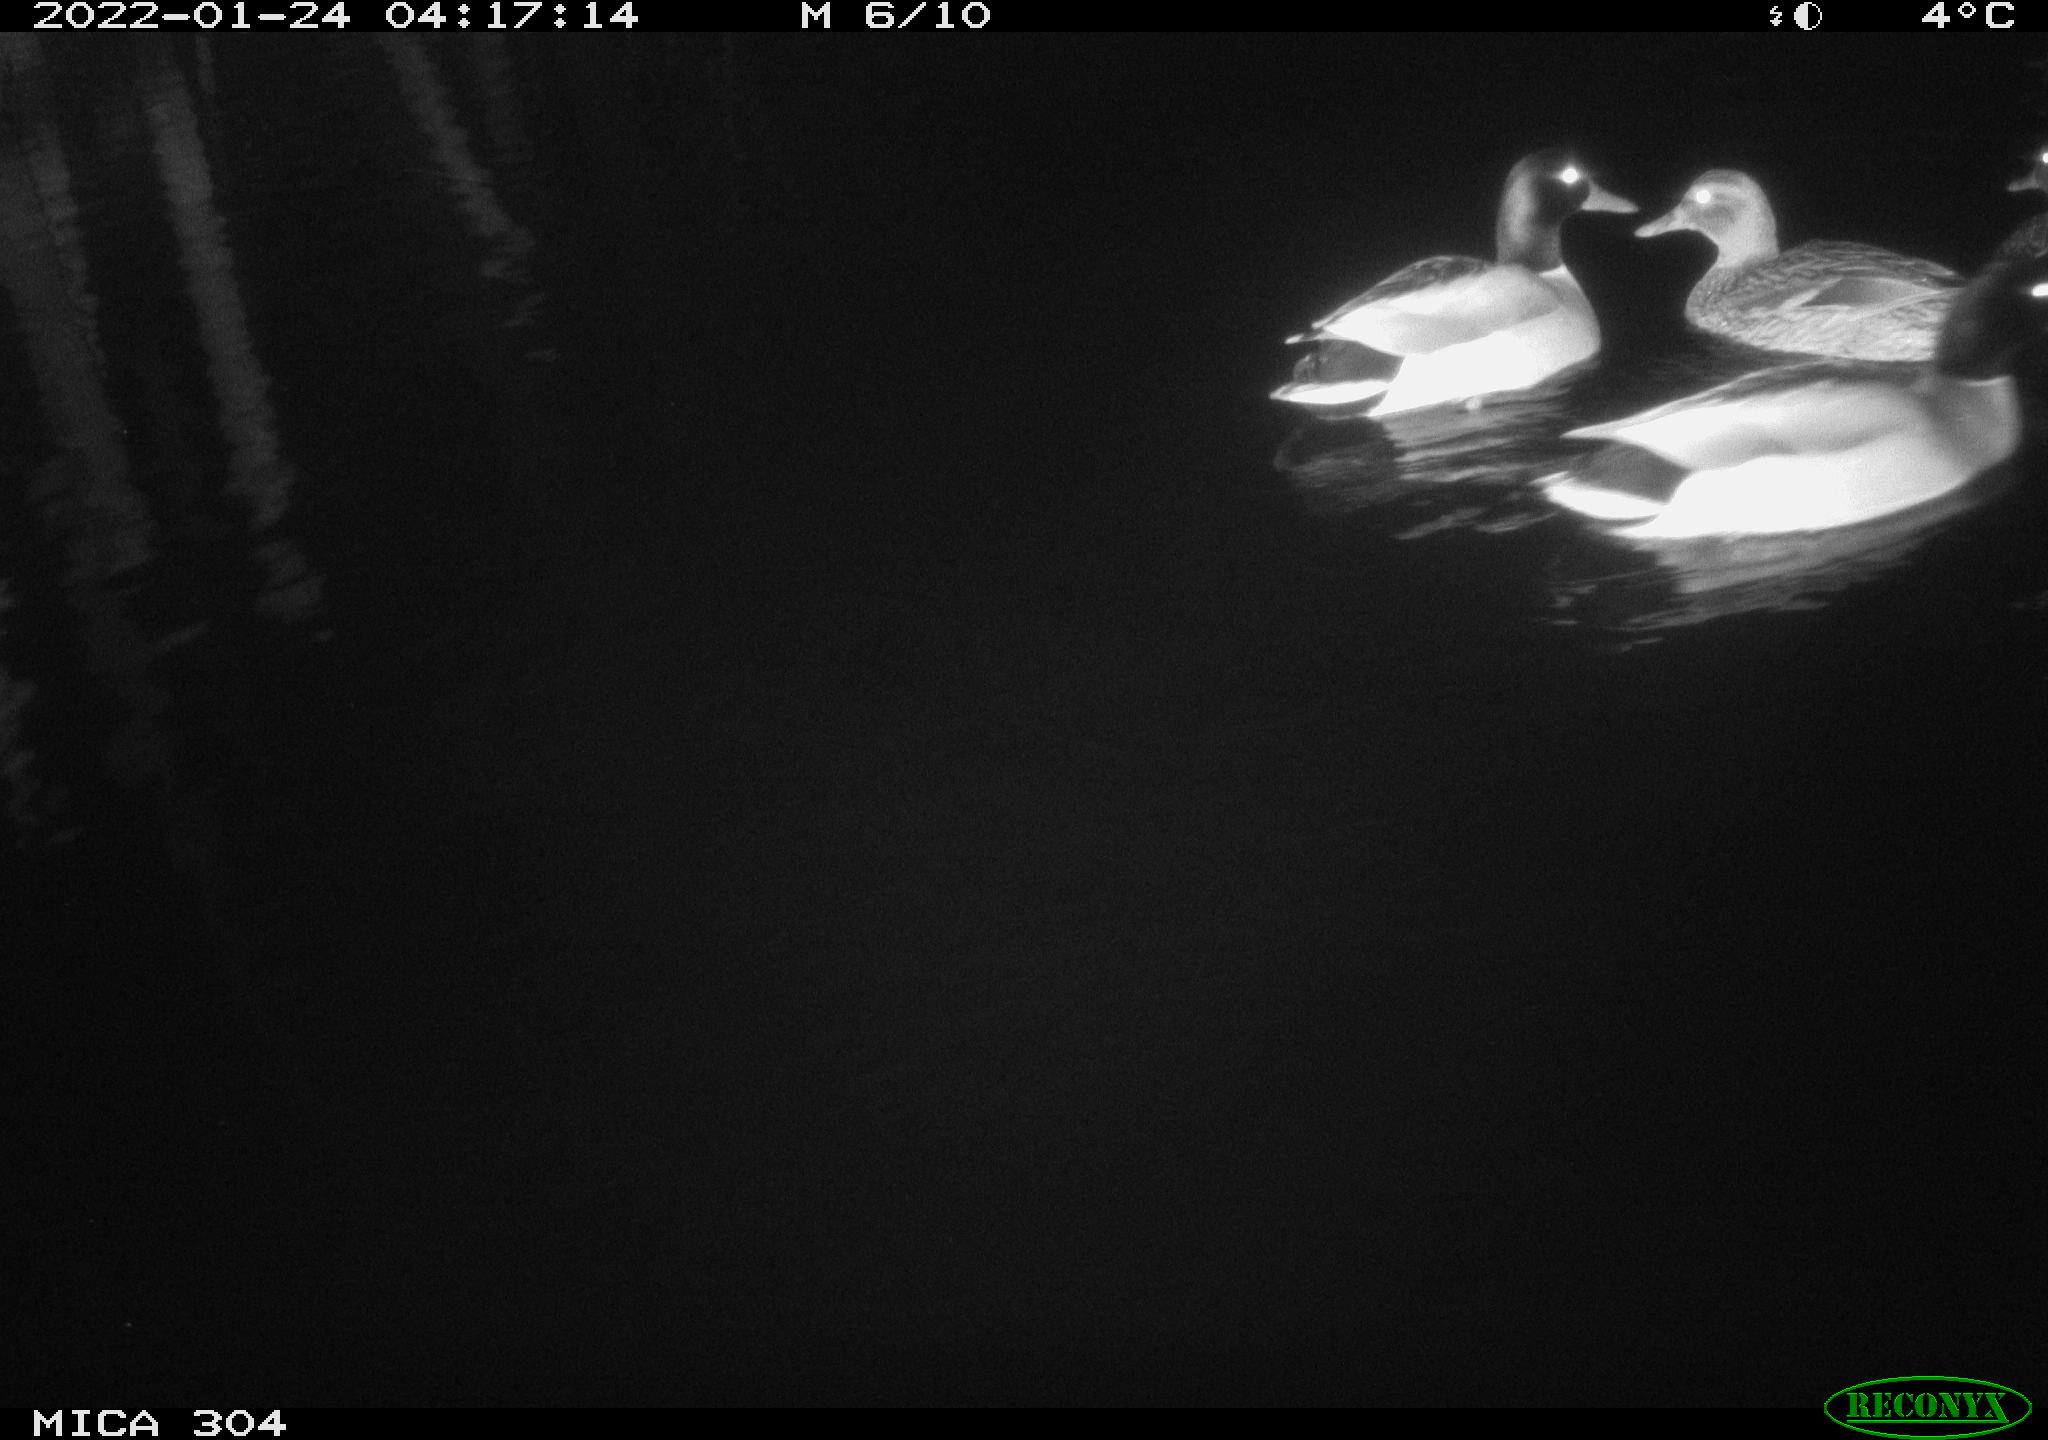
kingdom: Animalia
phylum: Chordata
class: Aves
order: Anseriformes
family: Anatidae
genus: Anas
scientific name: Anas
